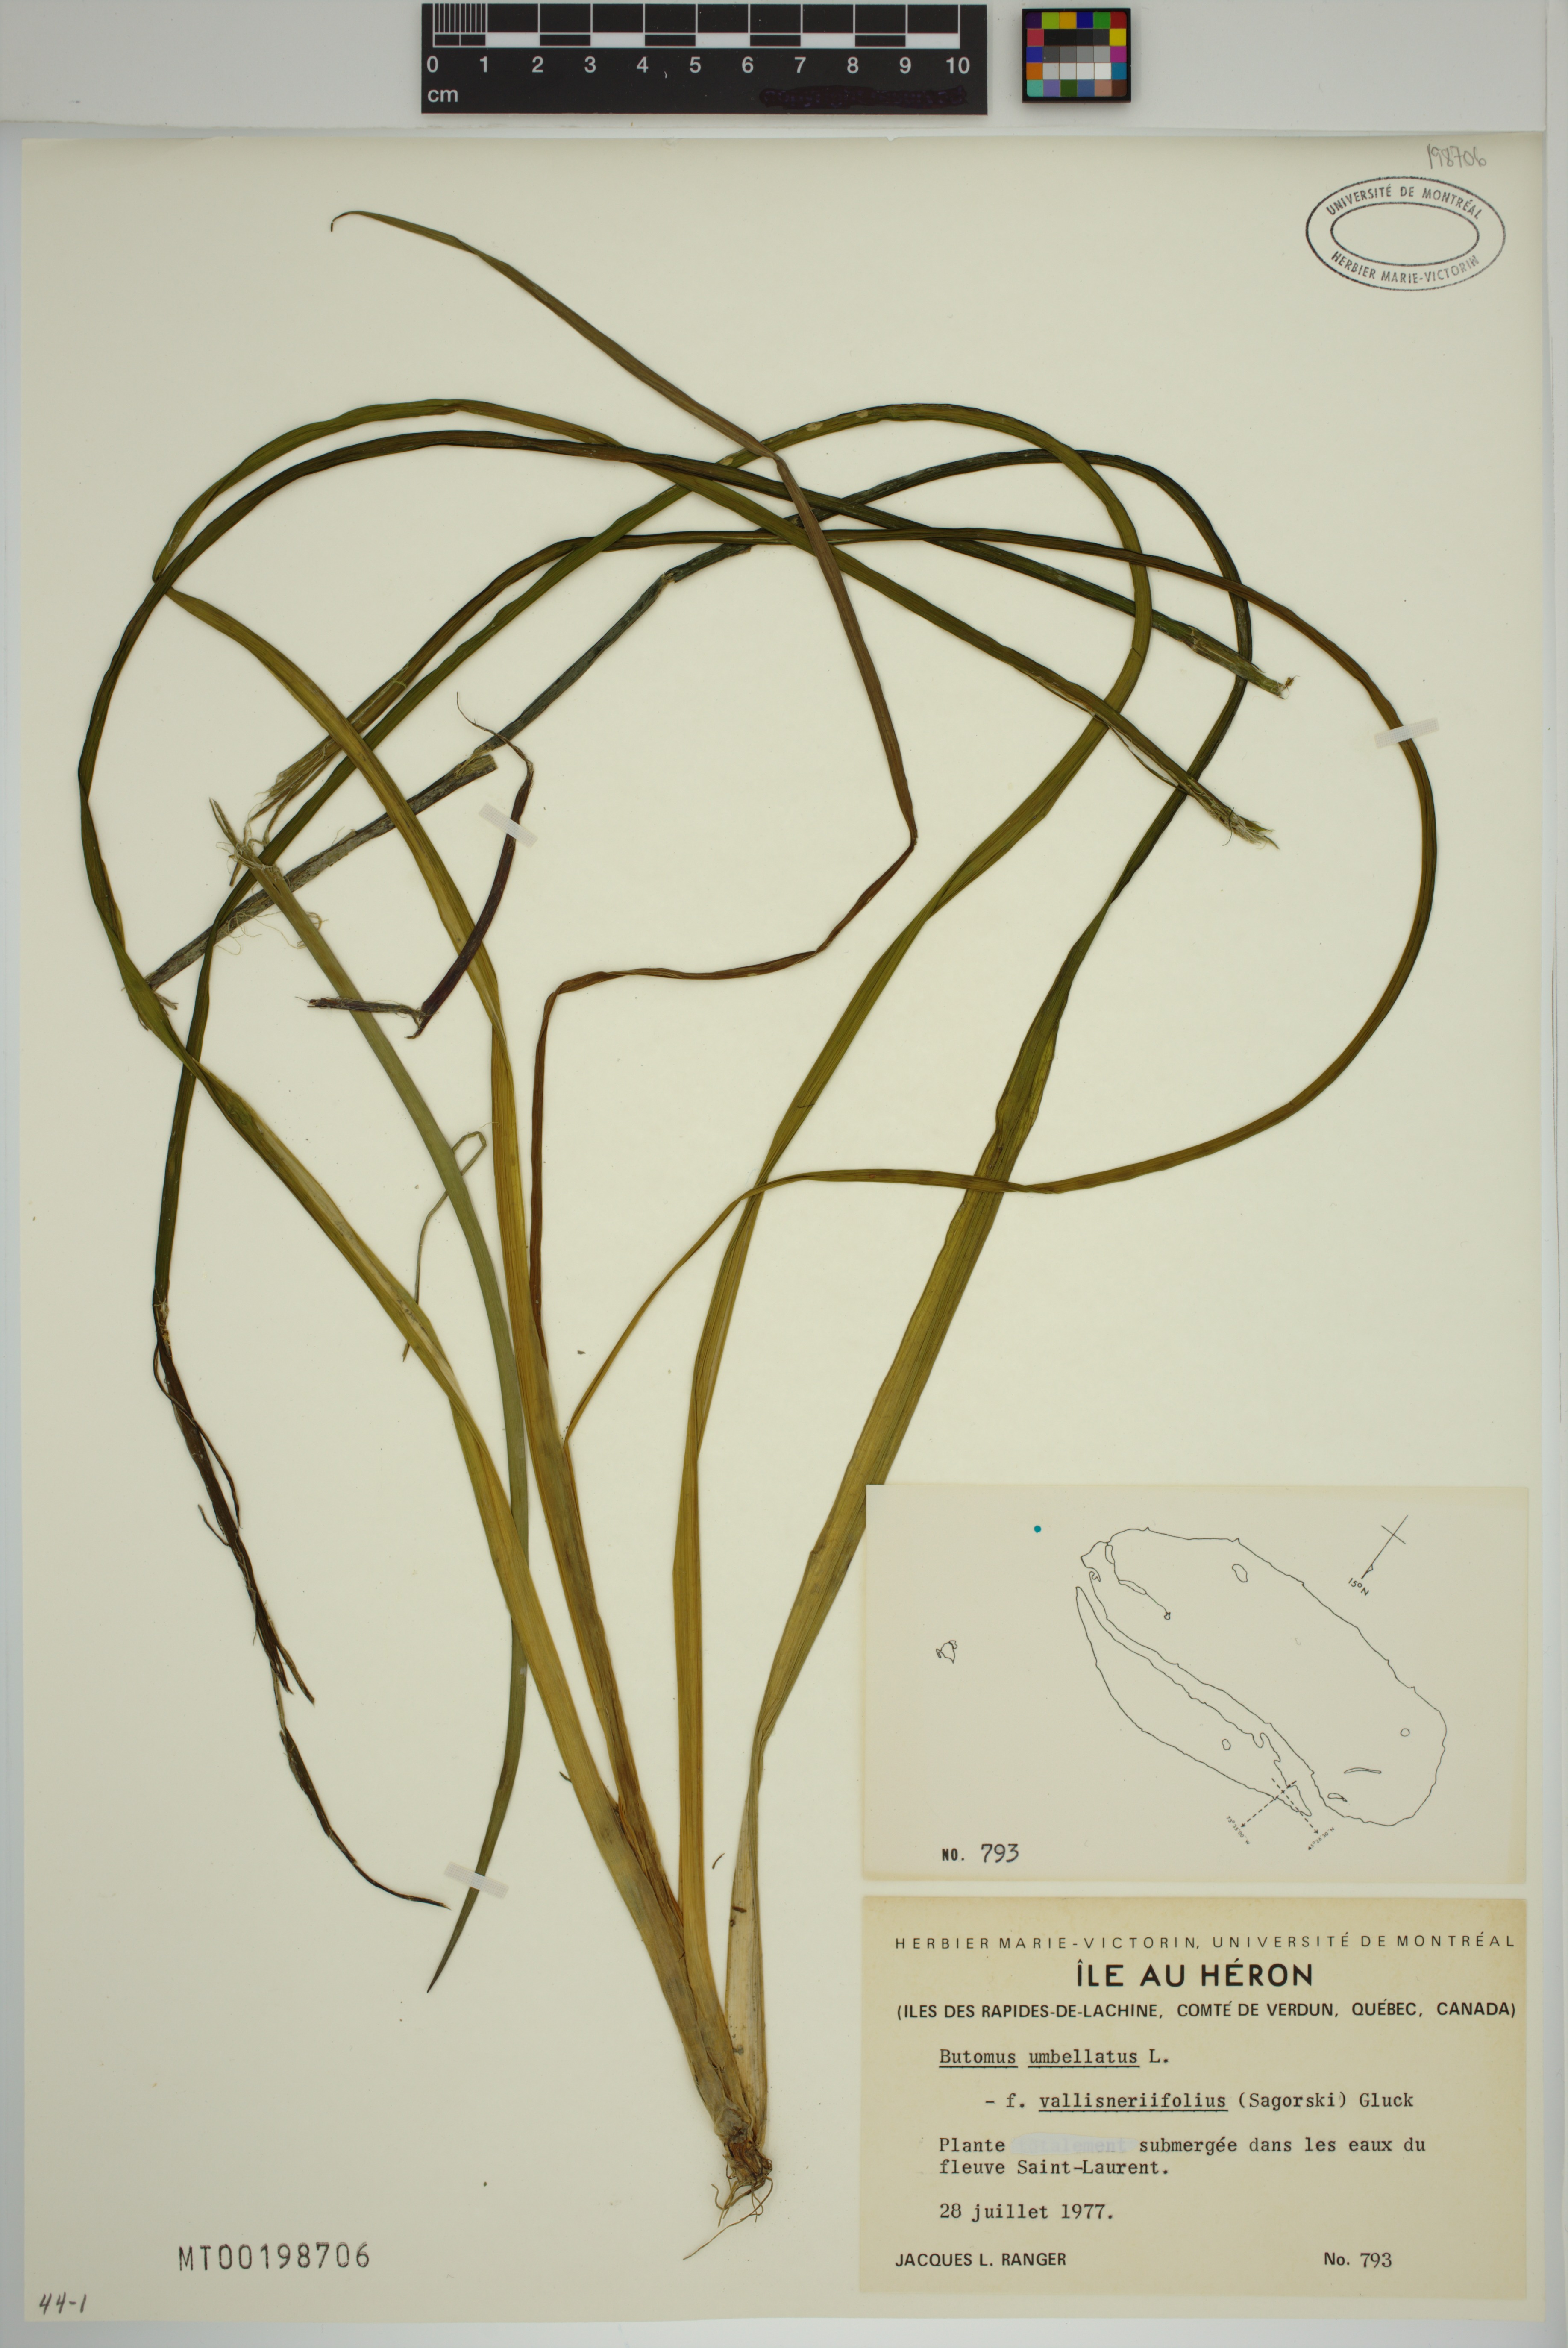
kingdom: Plantae
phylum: Tracheophyta
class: Liliopsida
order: Alismatales
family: Butomaceae
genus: Butomus
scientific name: Butomus umbellatus
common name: Flowering-rush
